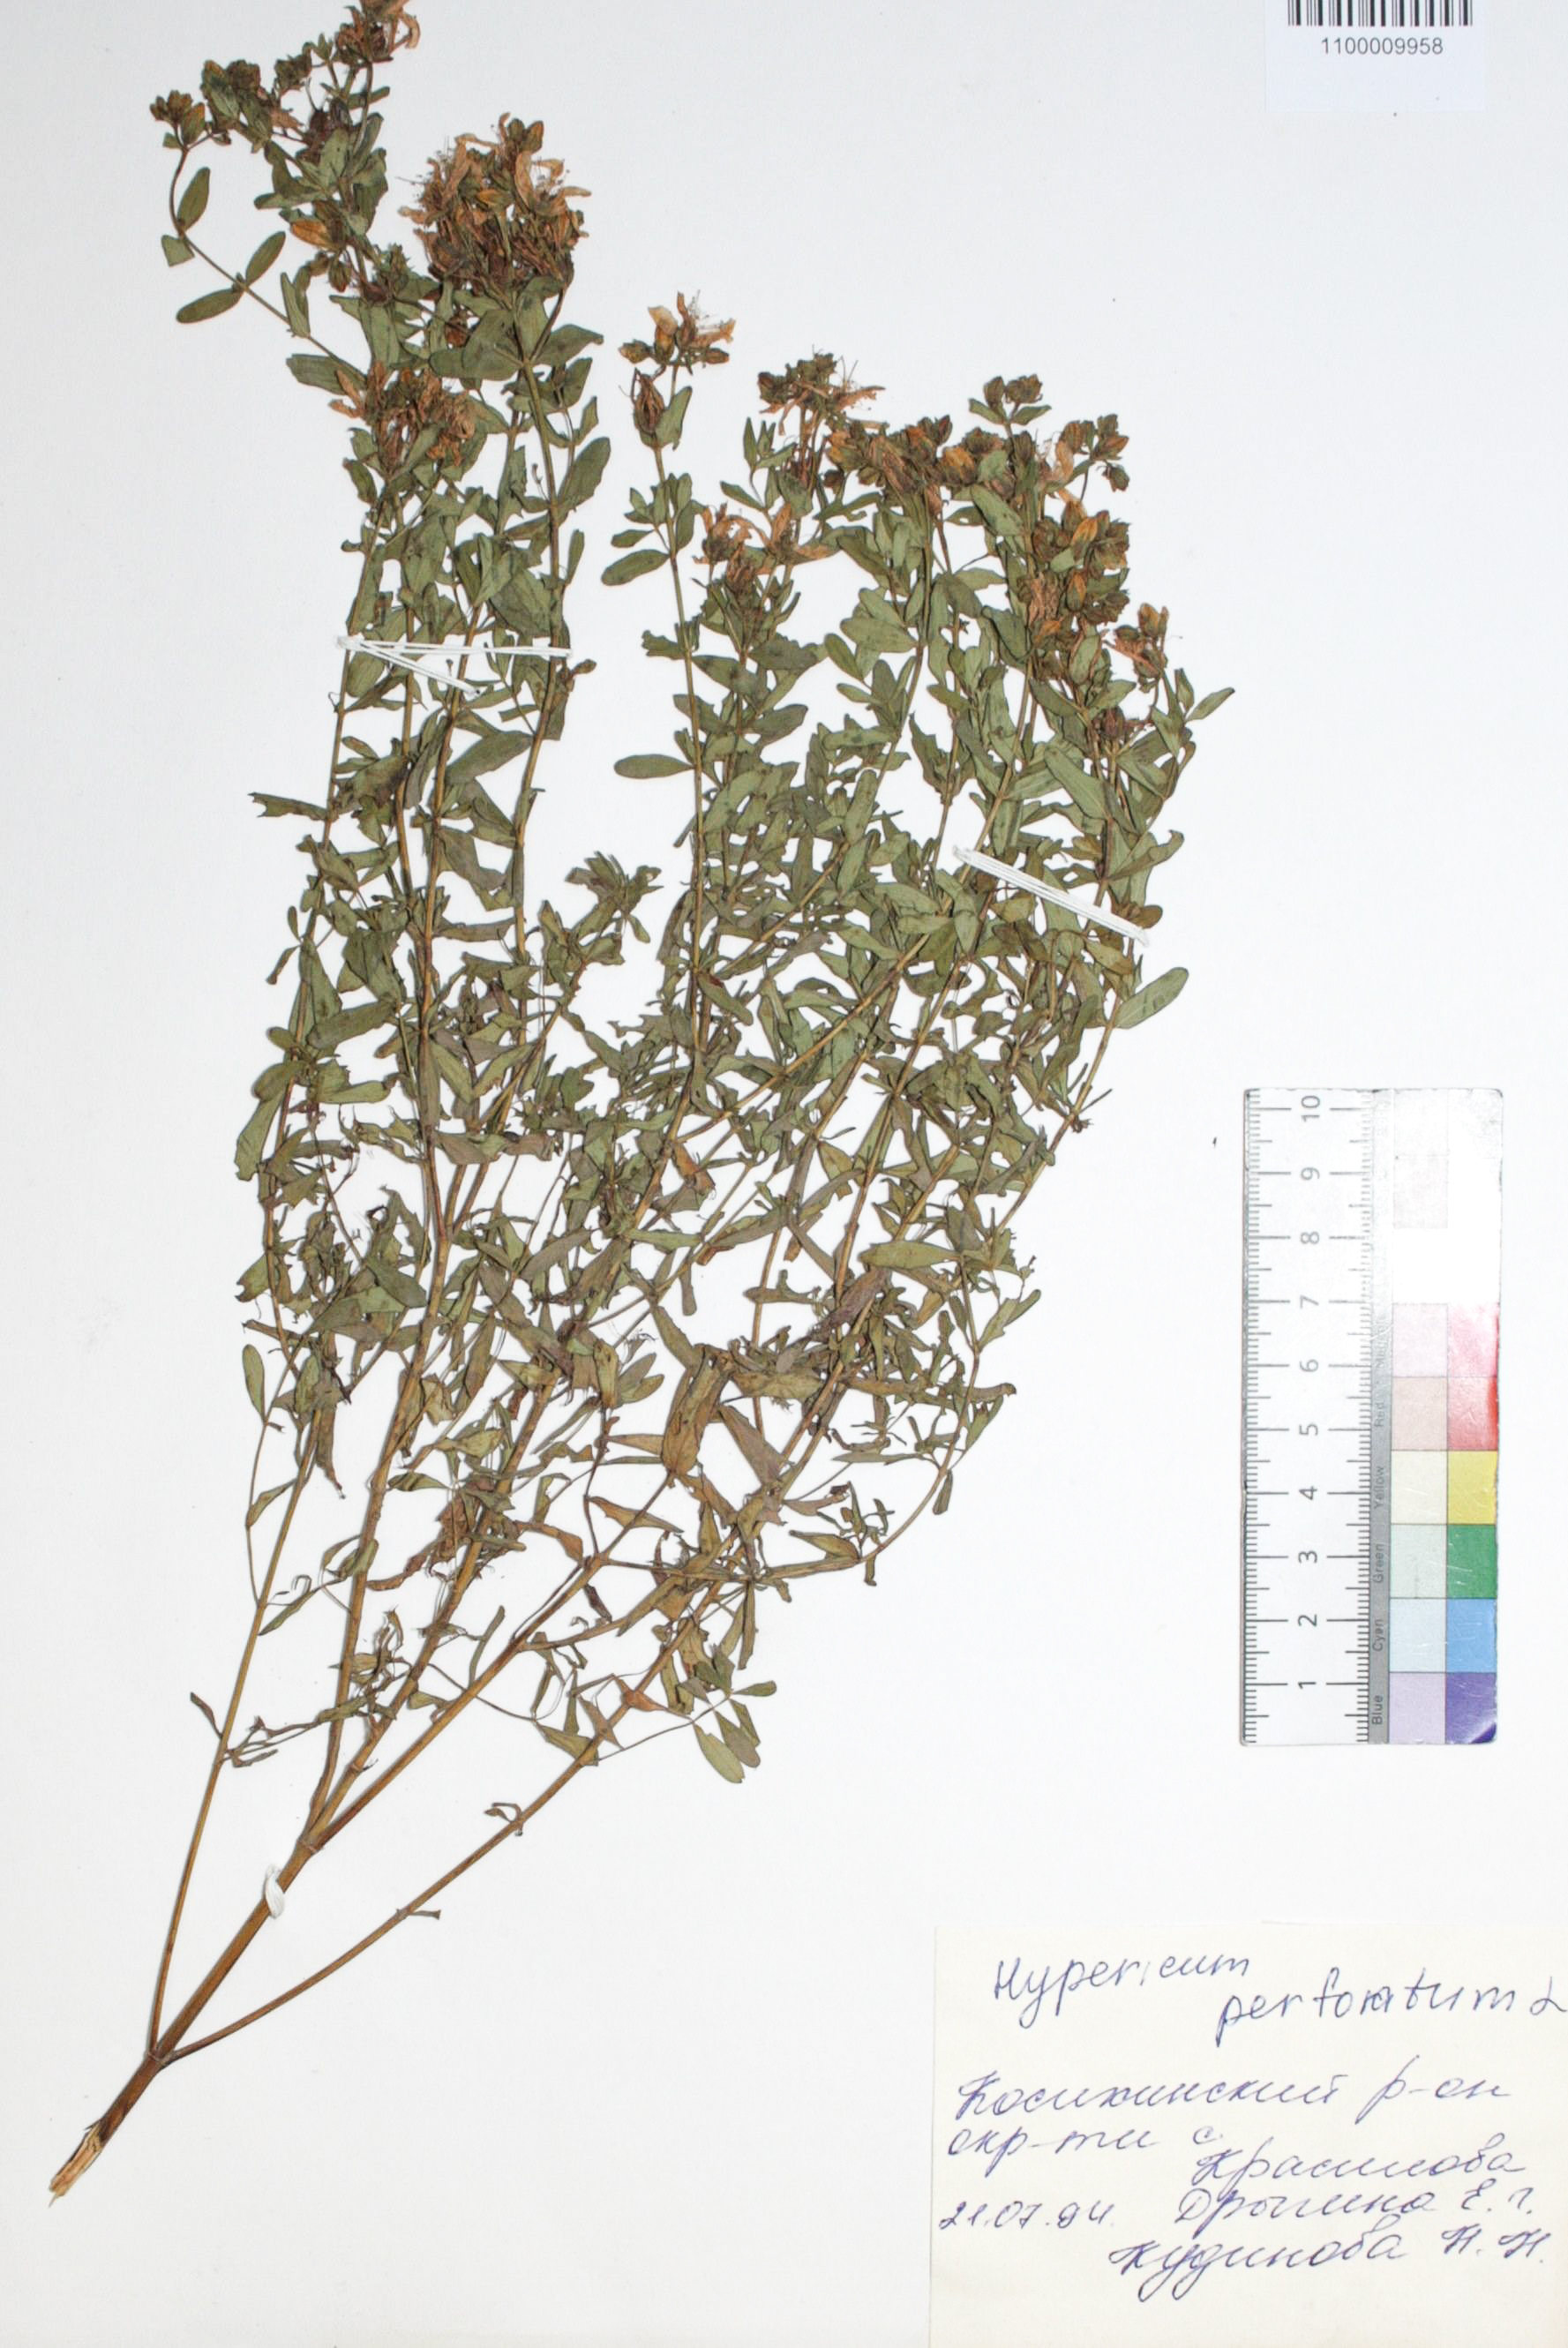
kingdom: Plantae
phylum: Tracheophyta
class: Magnoliopsida
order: Malpighiales
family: Hypericaceae
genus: Hypericum
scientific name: Hypericum perforatum
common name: Common st. johnswort
